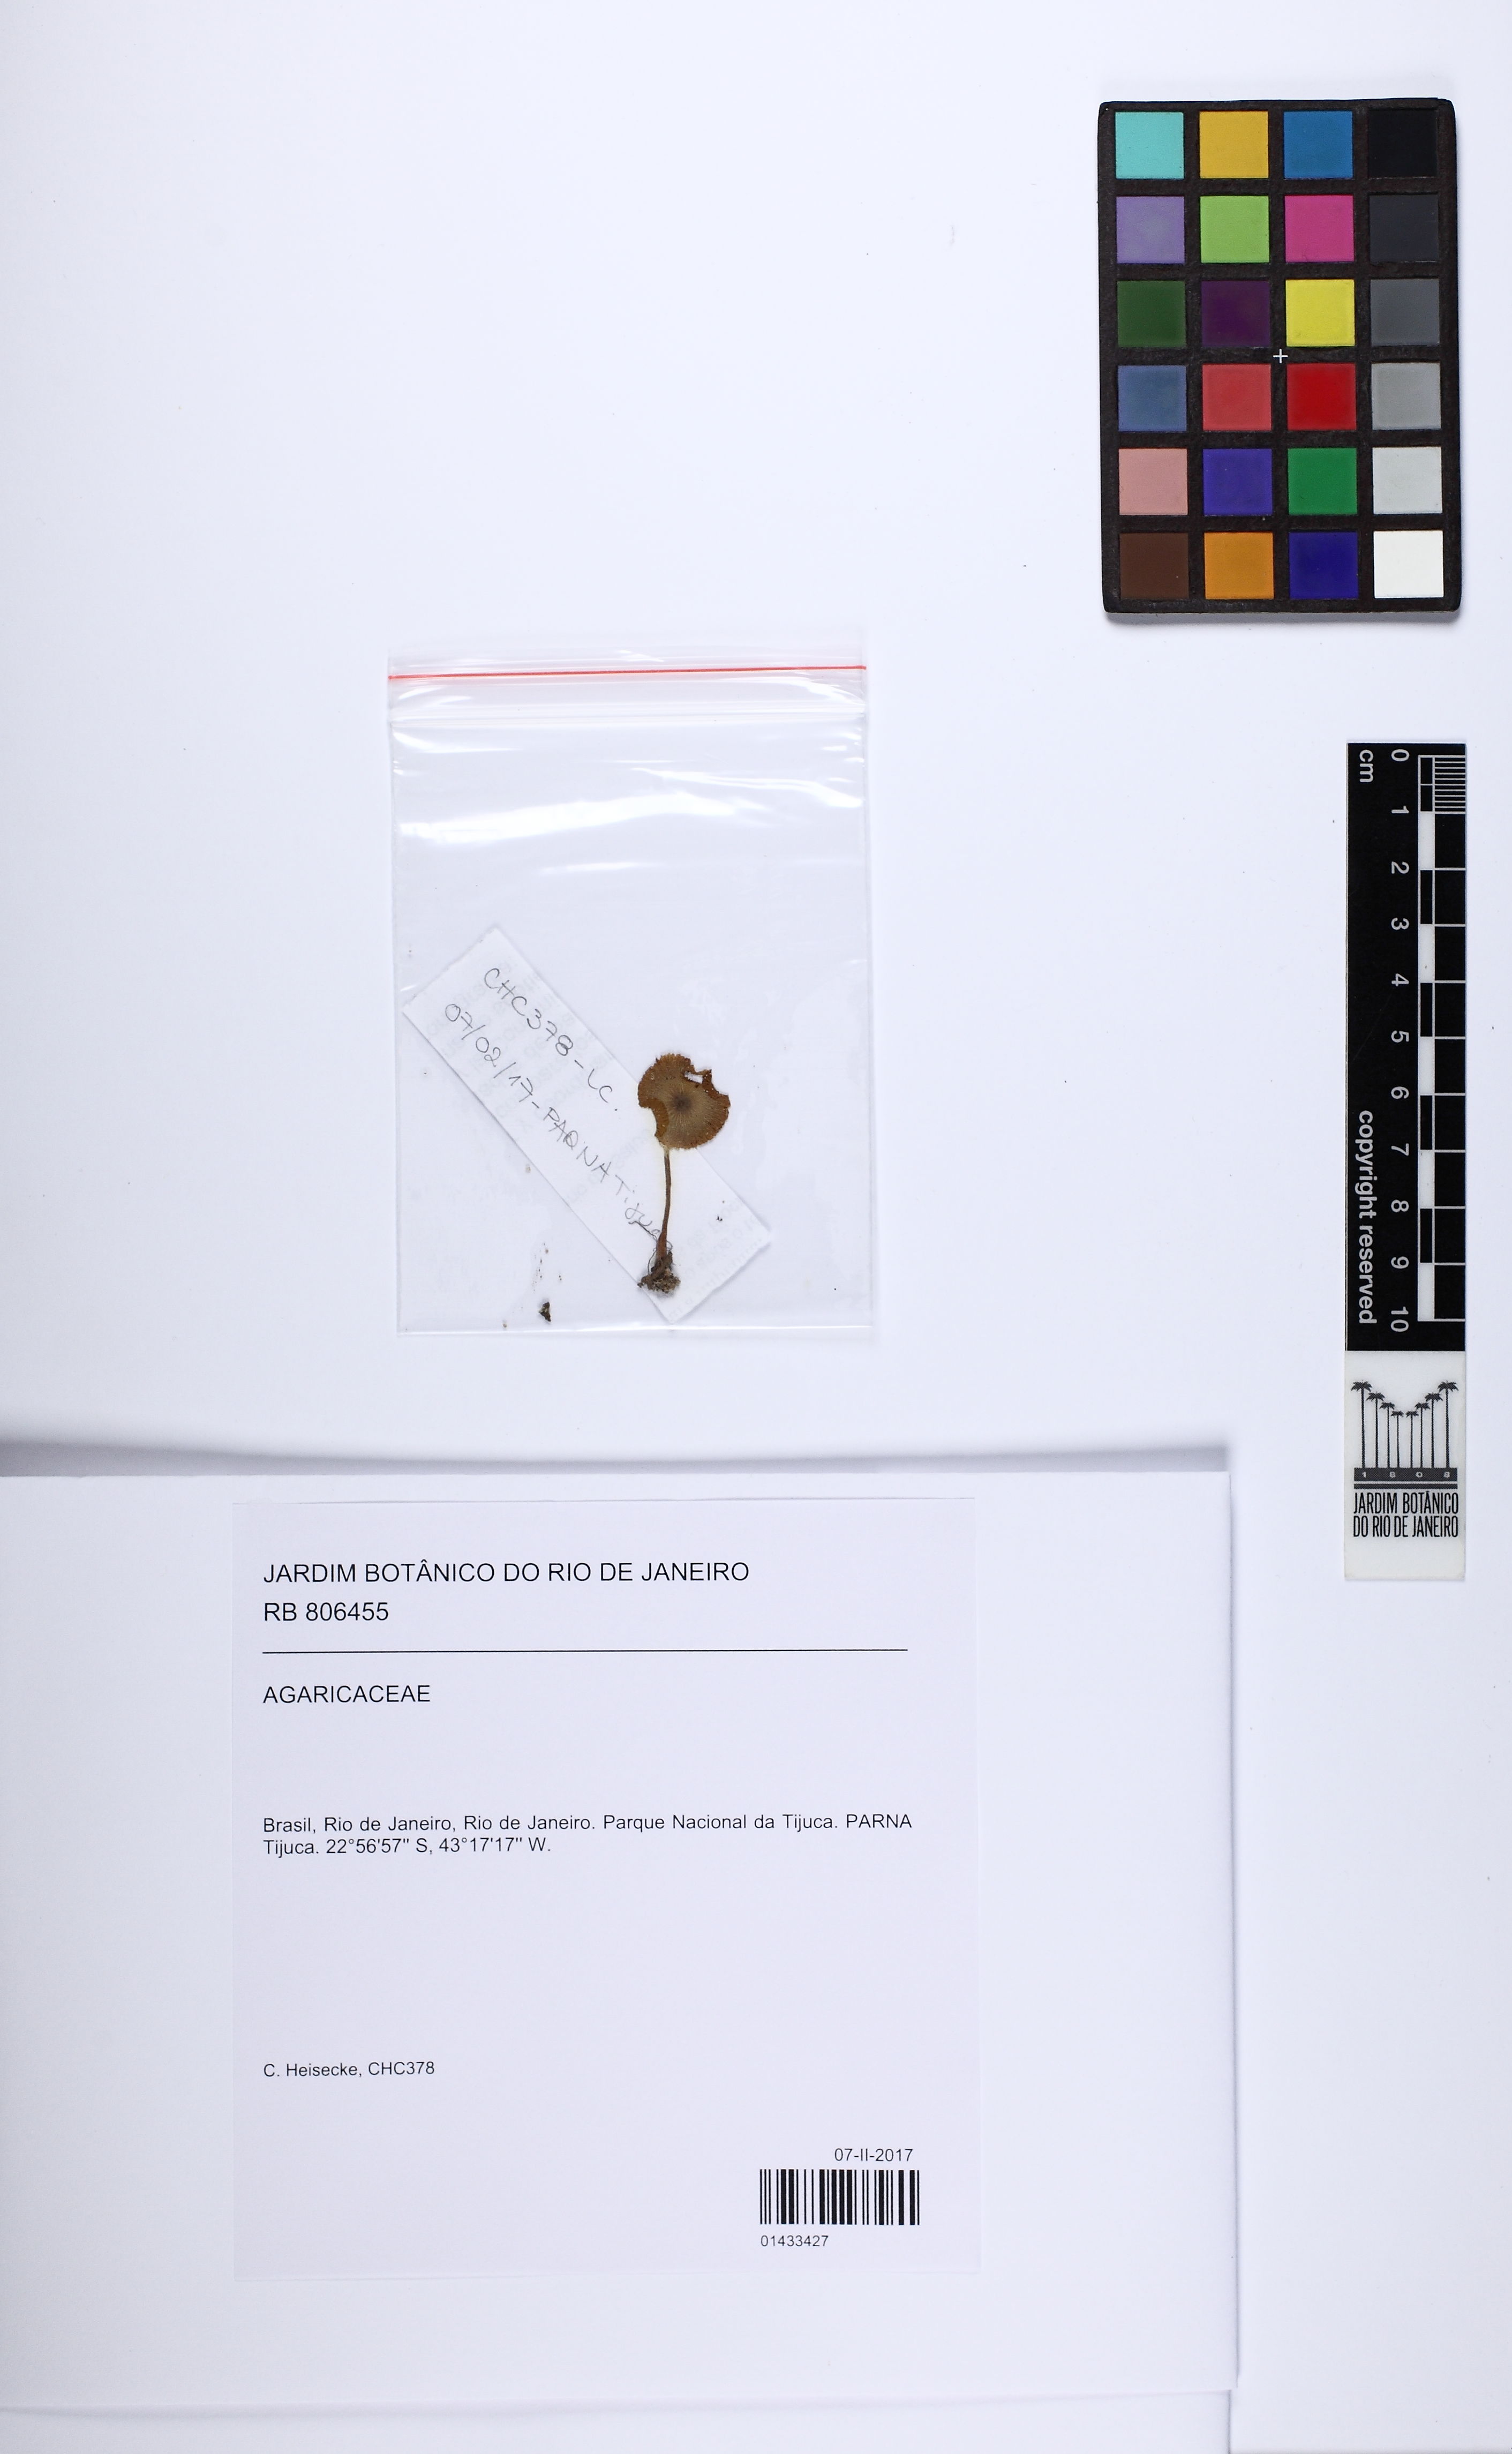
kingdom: Fungi
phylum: Basidiomycota
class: Agaricomycetes
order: Agaricales
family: Agaricaceae
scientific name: Agaricaceae
